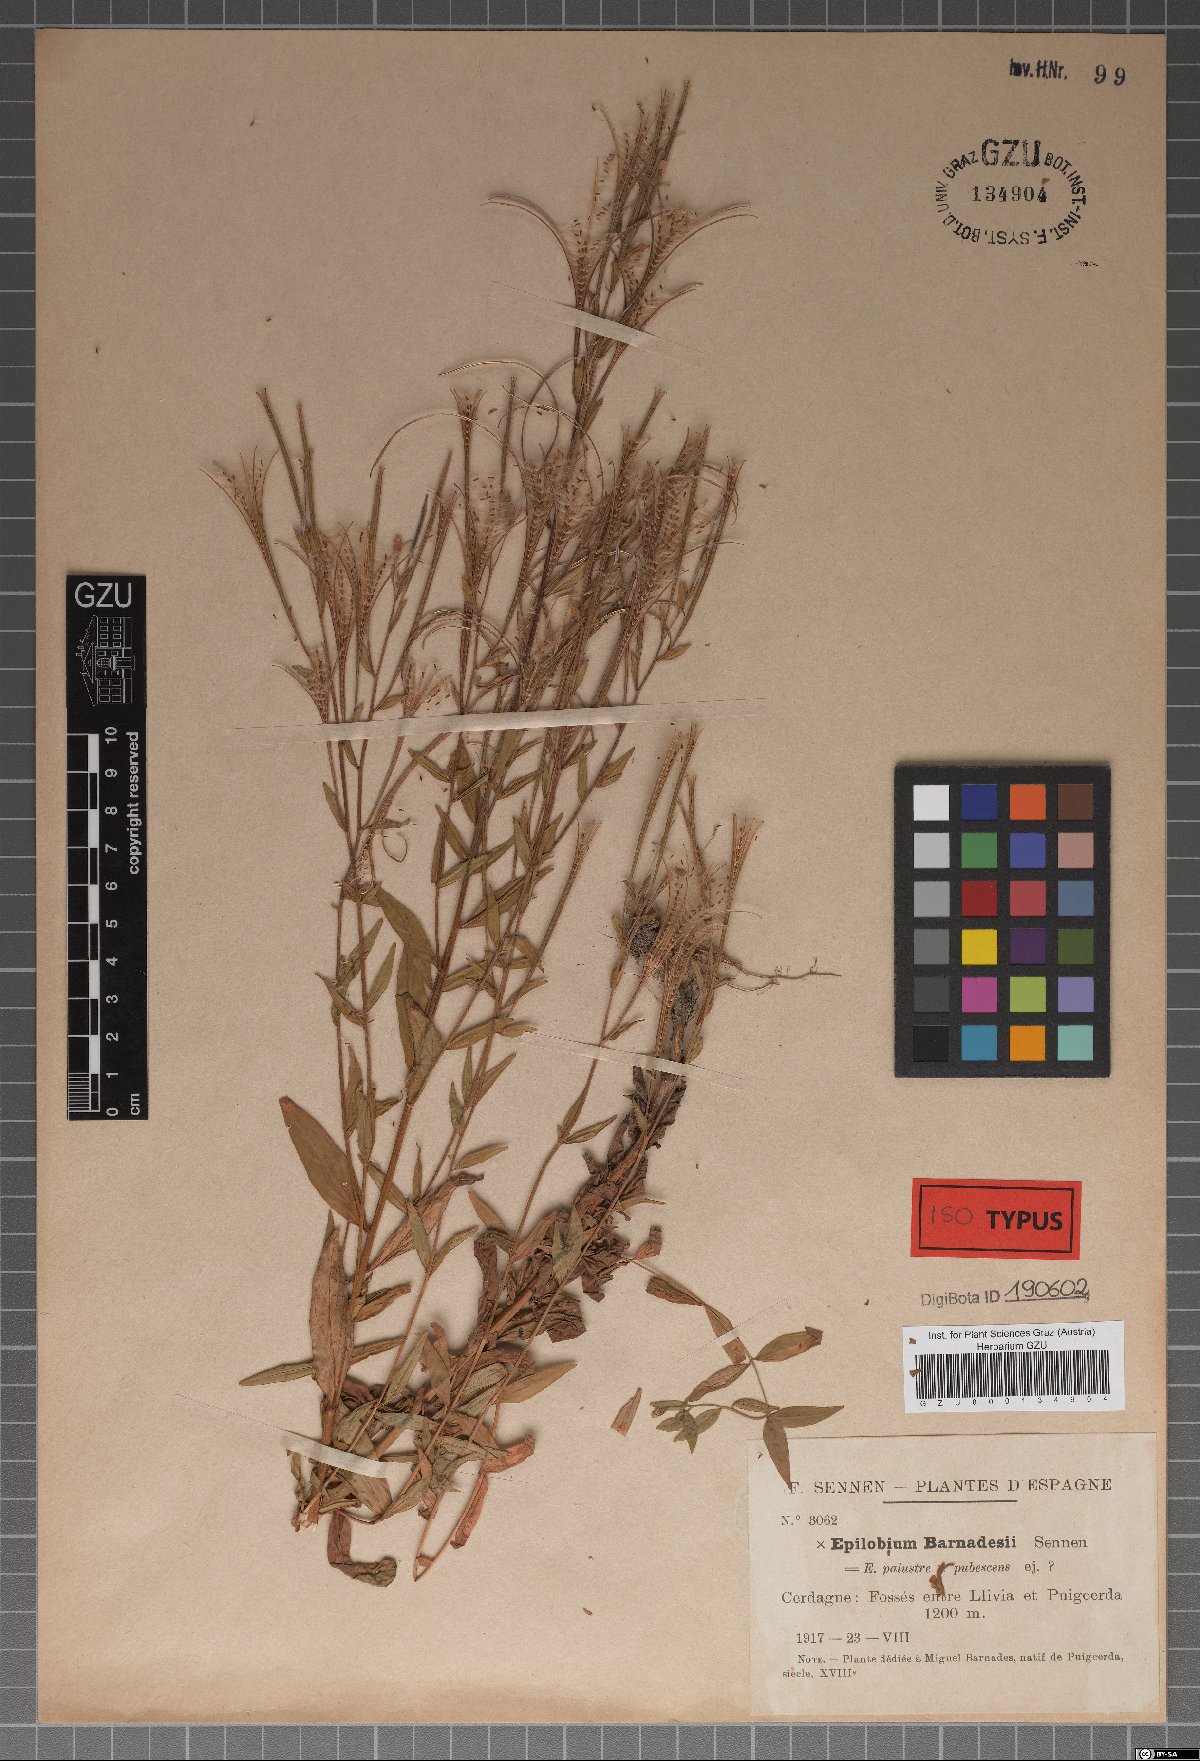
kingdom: Plantae
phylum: Tracheophyta
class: Magnoliopsida
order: Myrtales
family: Onagraceae
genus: Epilobium
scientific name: Epilobium barnadesianum
